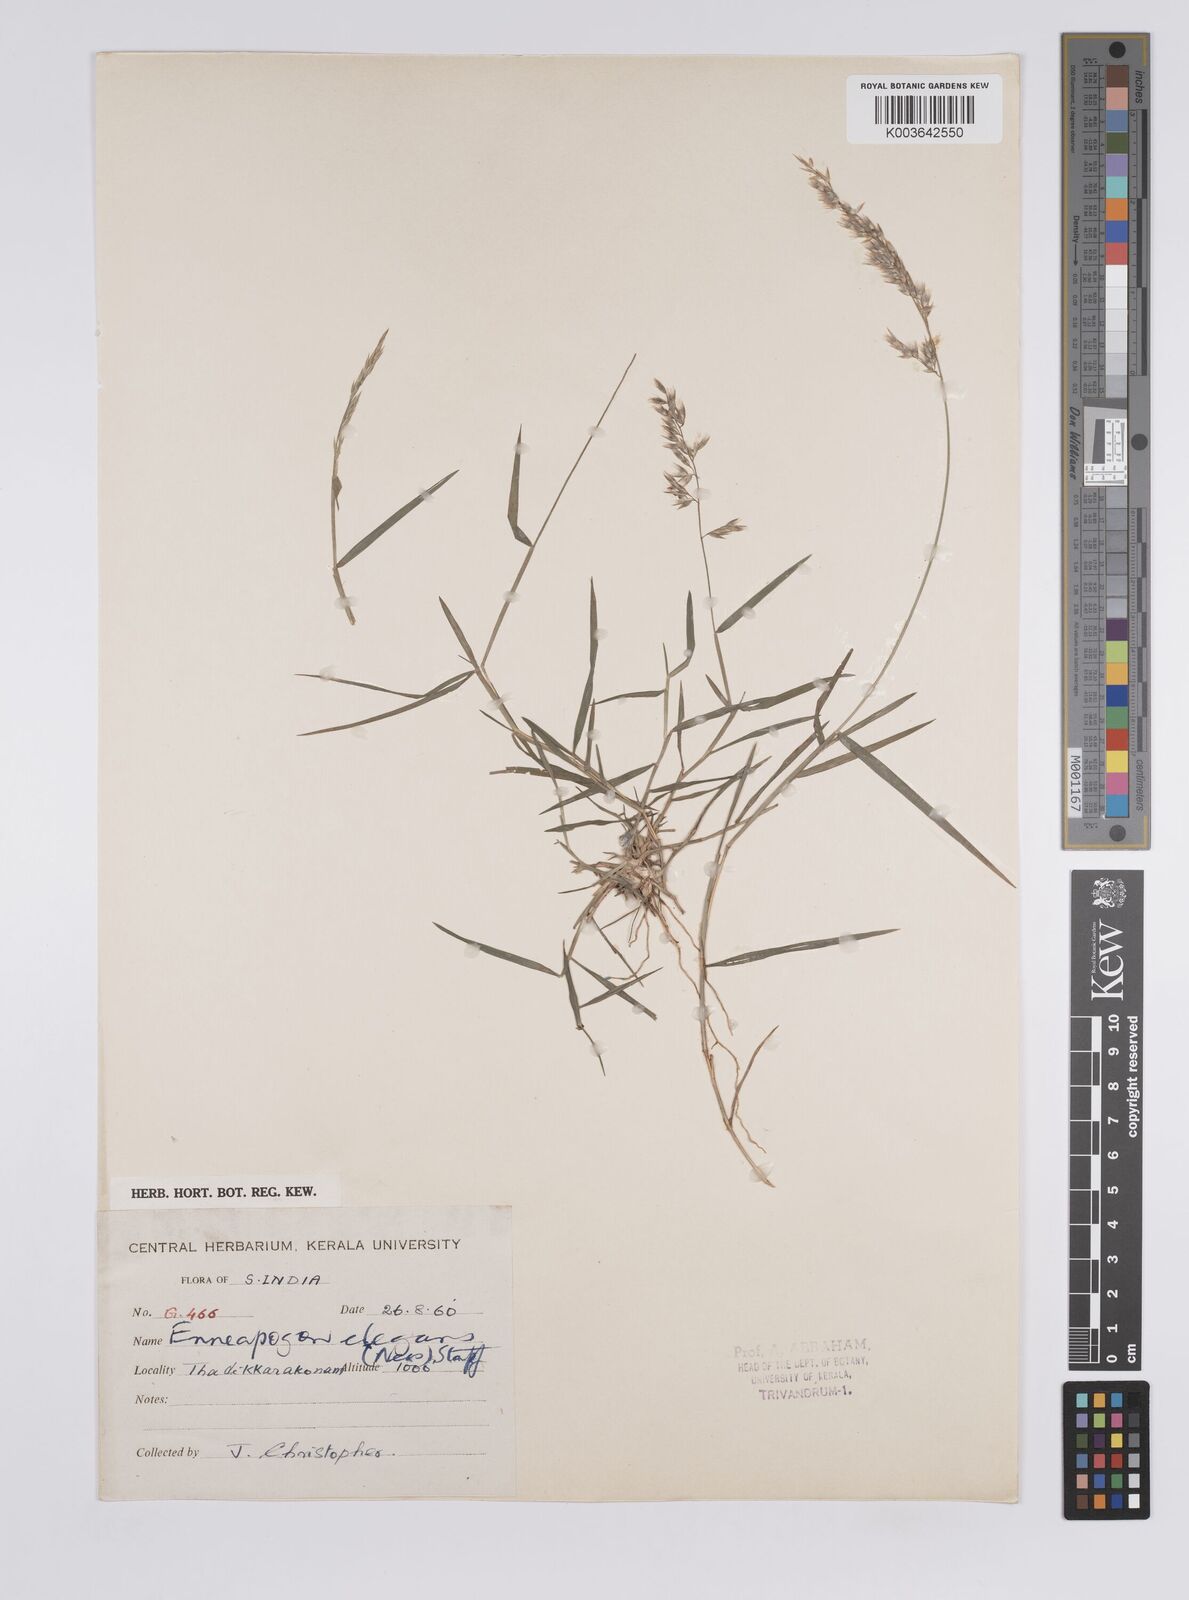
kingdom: Plantae
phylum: Tracheophyta
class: Liliopsida
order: Poales
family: Poaceae
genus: Enneapogon
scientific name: Enneapogon persicus
